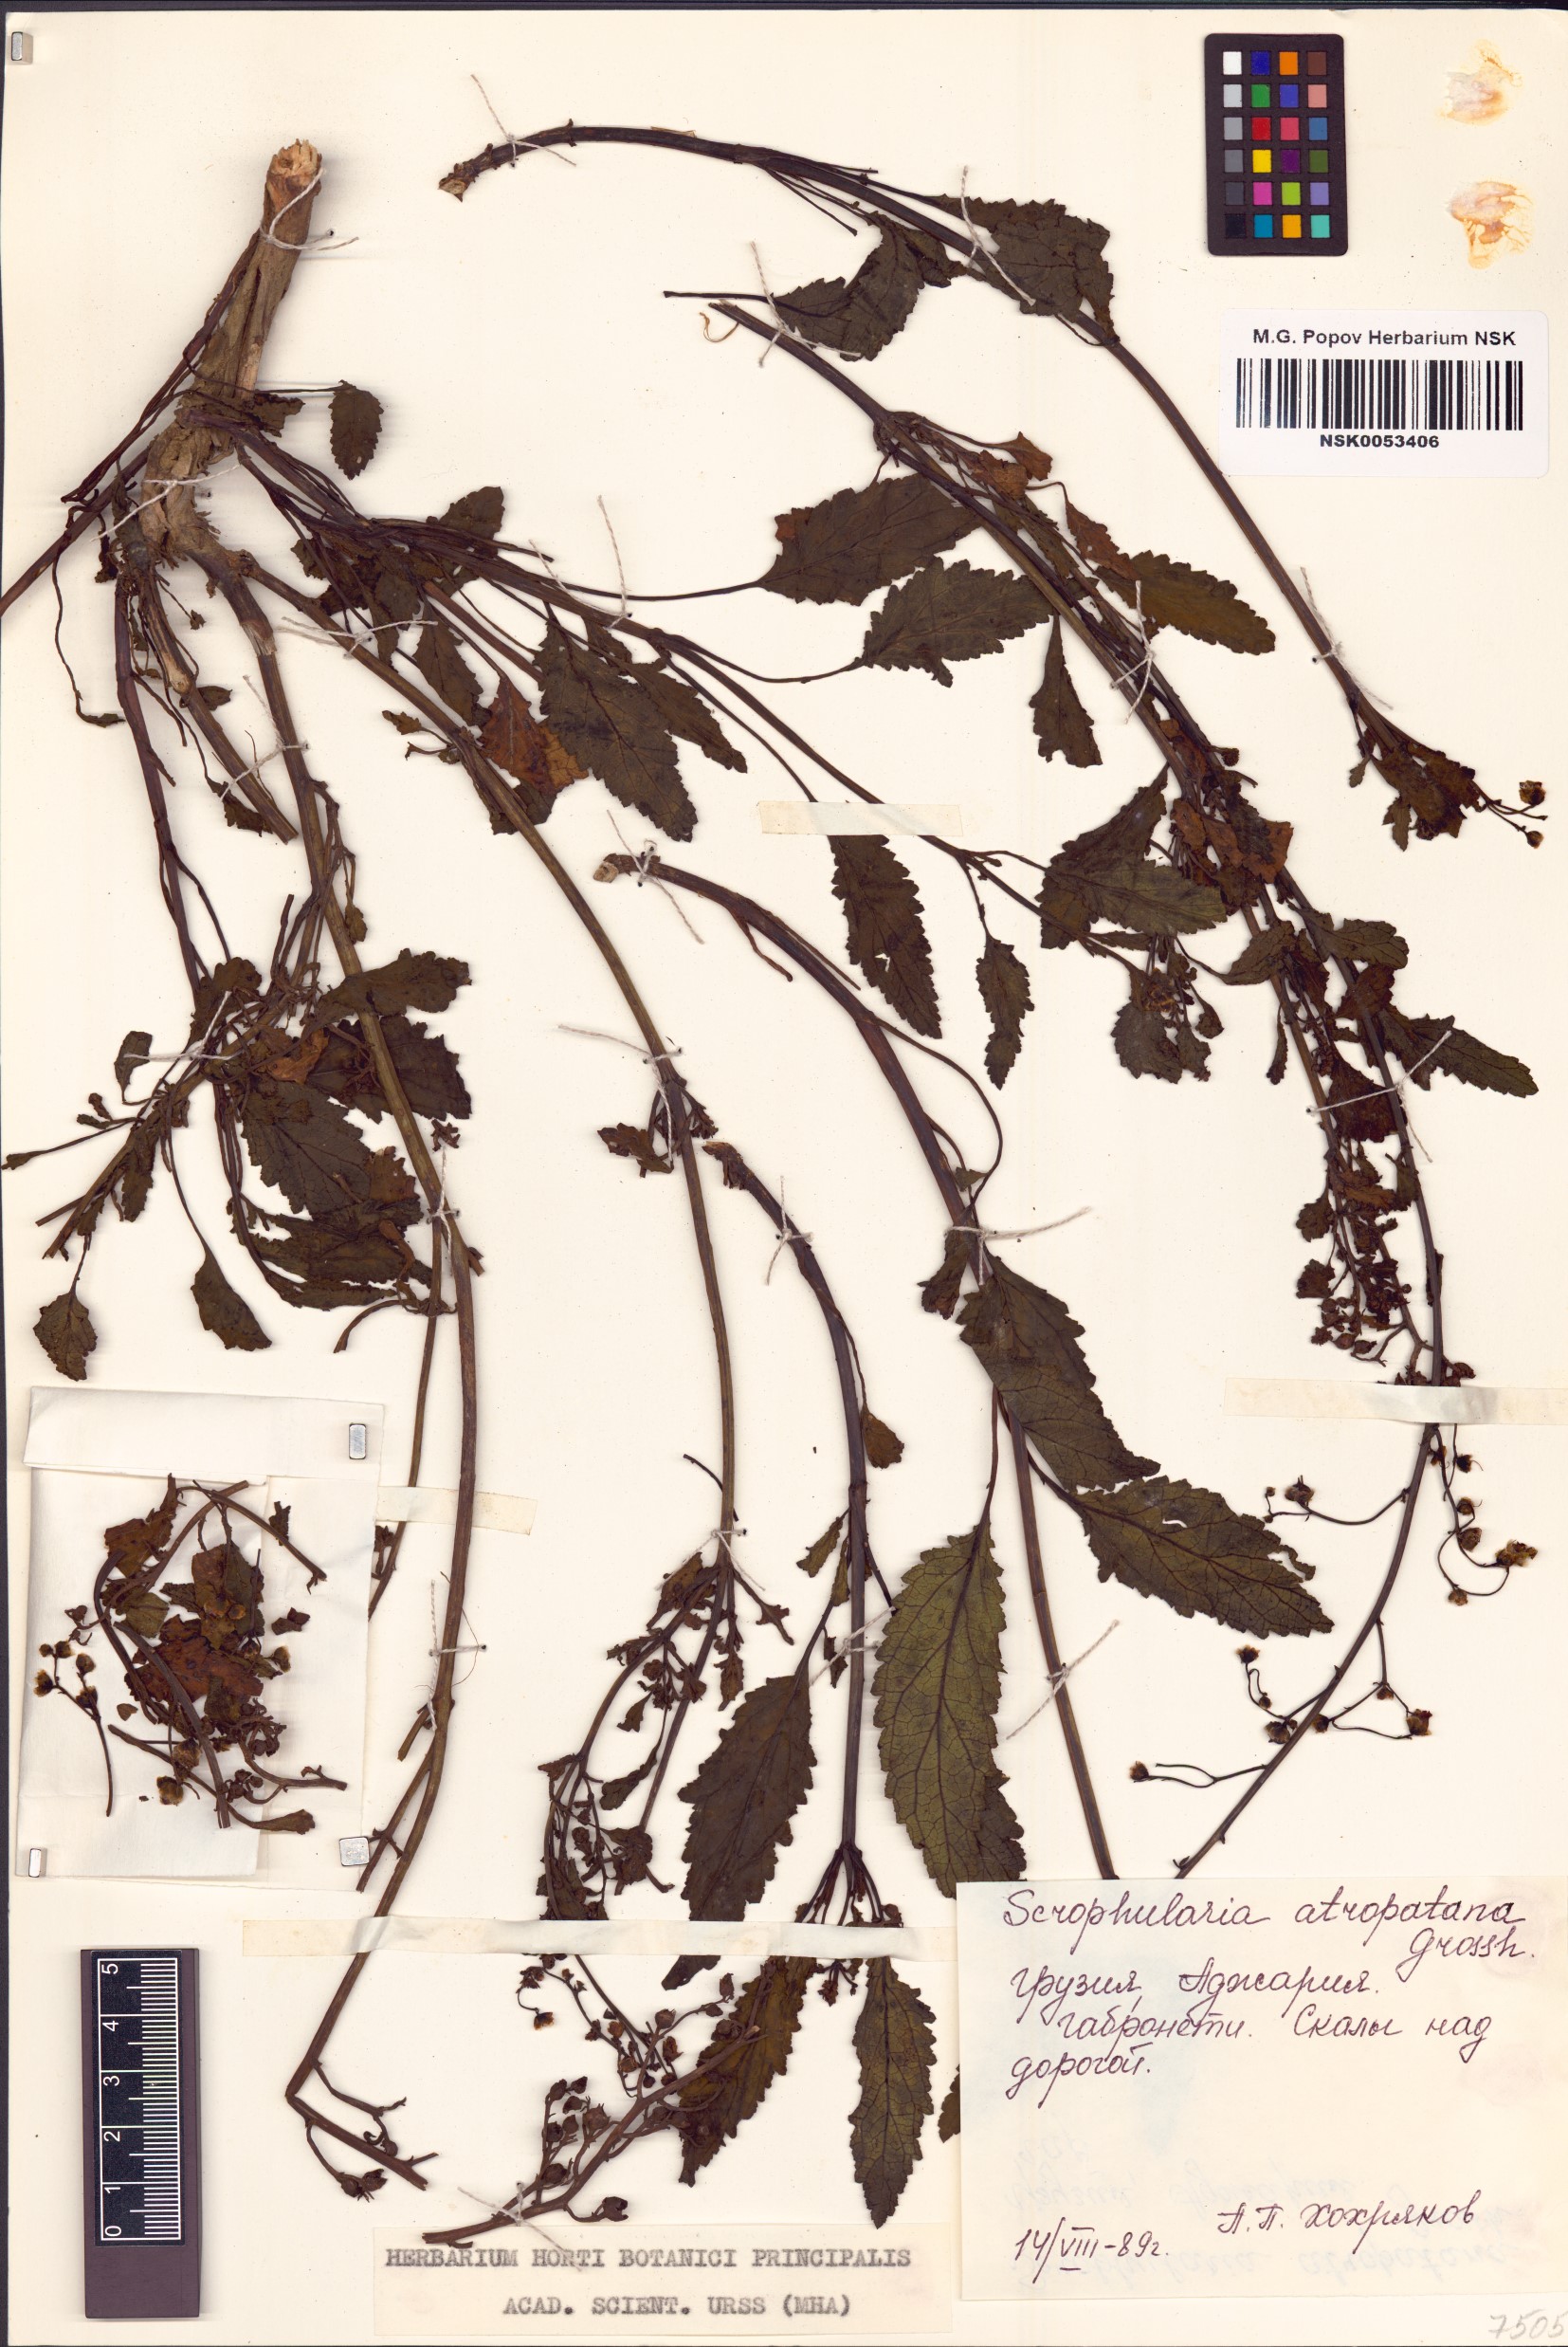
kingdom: Plantae
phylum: Tracheophyta
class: Magnoliopsida
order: Lamiales
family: Scrophulariaceae
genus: Scrophularia
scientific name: Scrophularia atropatana
